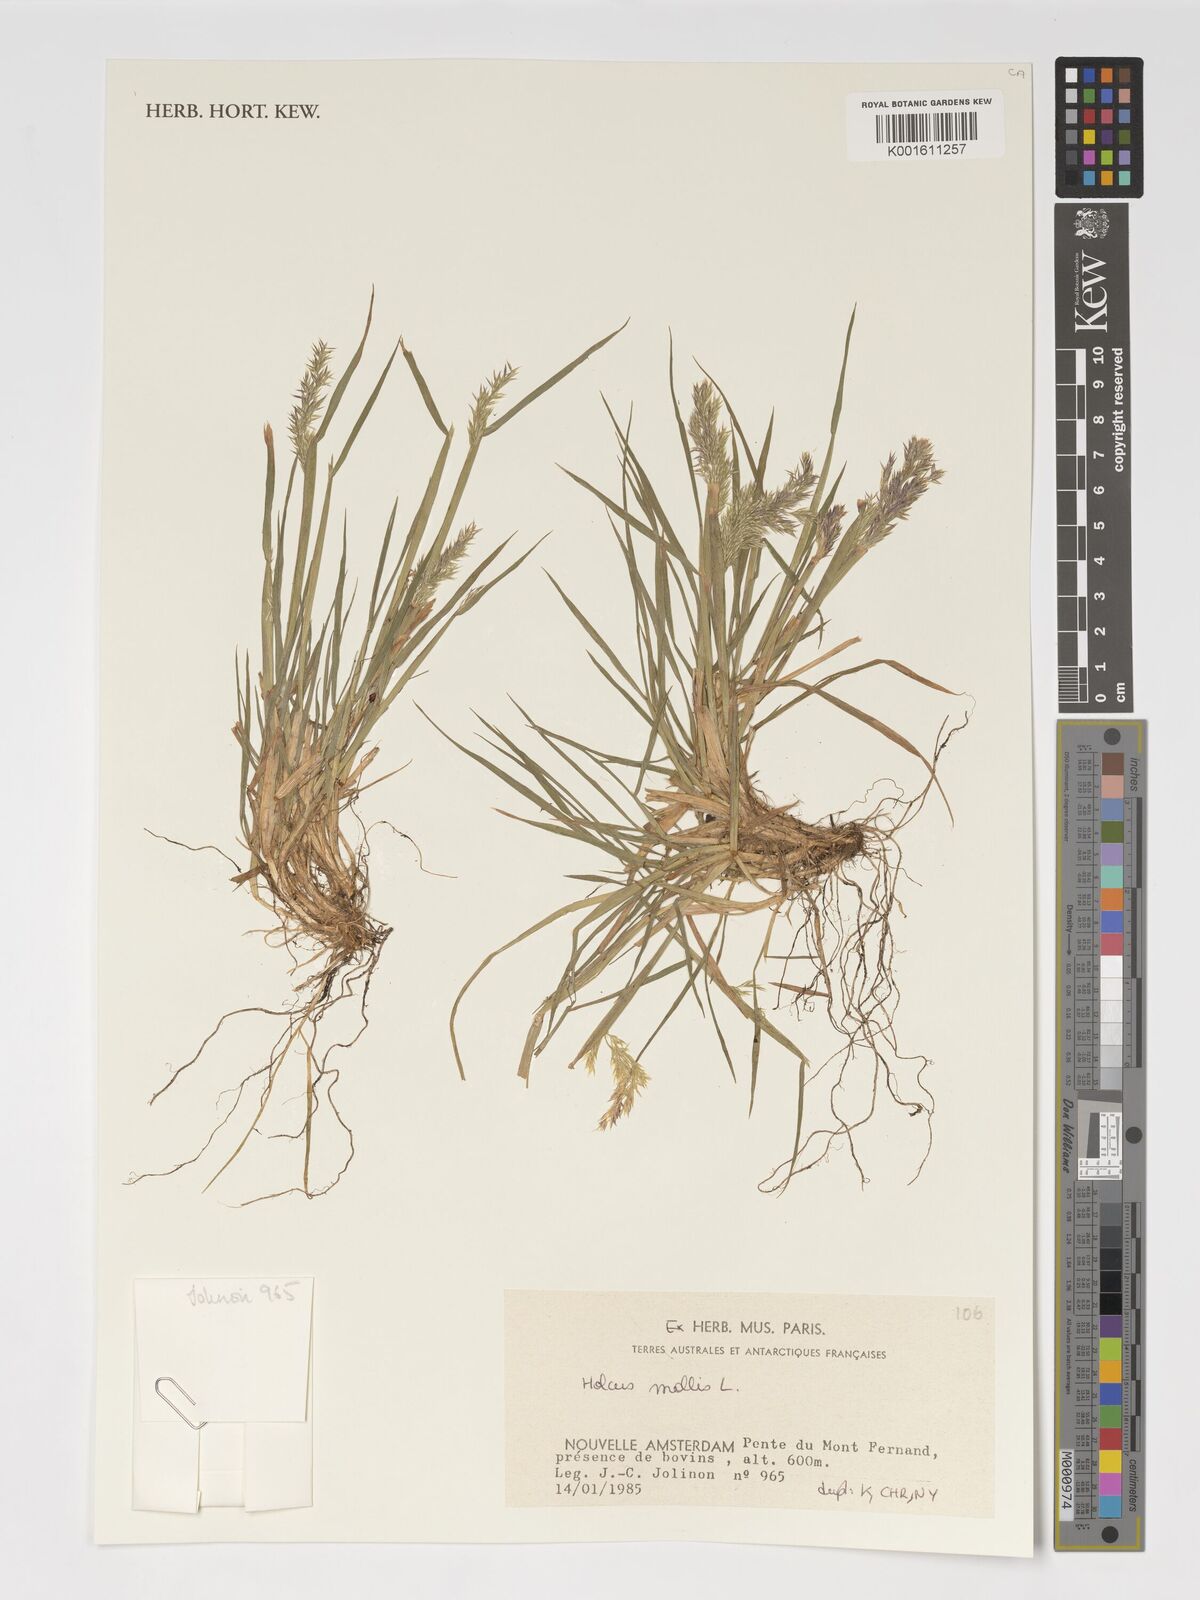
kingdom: Plantae
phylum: Tracheophyta
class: Liliopsida
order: Poales
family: Poaceae
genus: Holcus
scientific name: Holcus mollis
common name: Creeping velvetgrass
